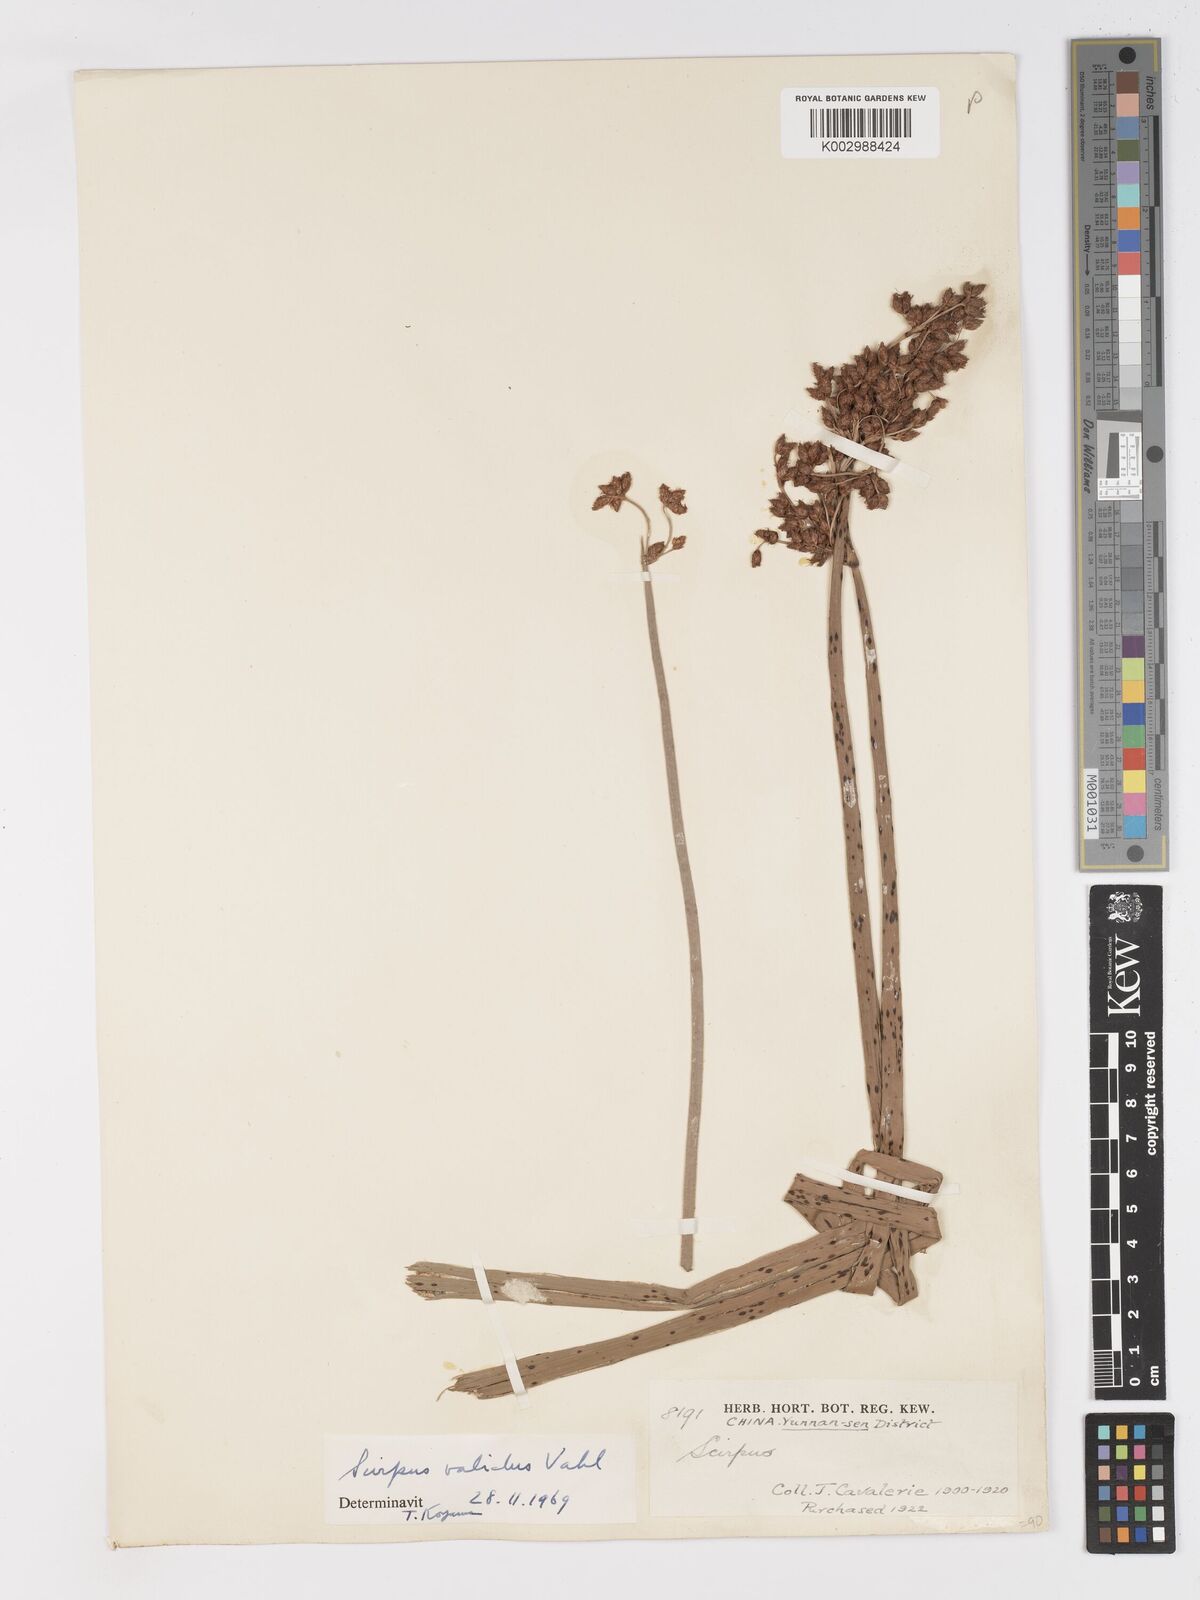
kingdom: Plantae
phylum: Tracheophyta
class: Liliopsida
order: Poales
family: Cyperaceae
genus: Schoenoplectus
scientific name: Schoenoplectus lacustris
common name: Common club-rush
